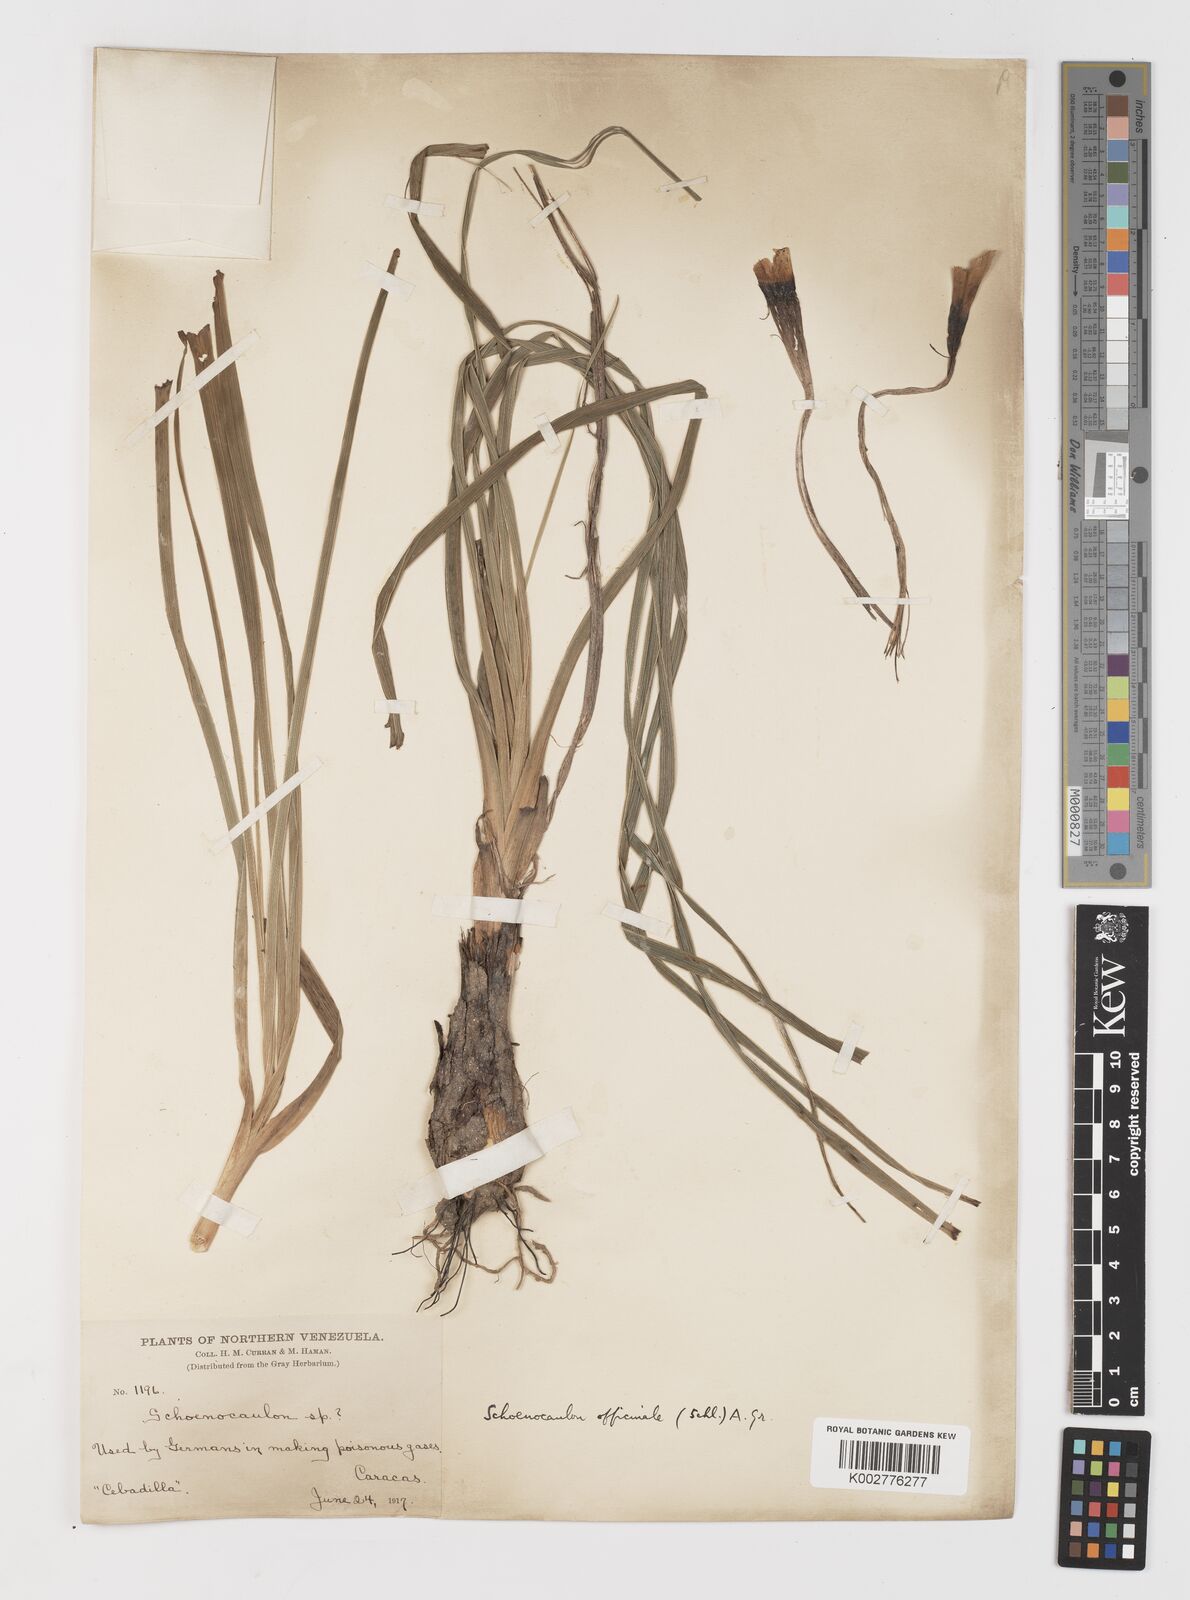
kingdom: Plantae
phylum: Tracheophyta
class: Liliopsida
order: Liliales
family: Melanthiaceae
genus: Schoenocaulon
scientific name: Schoenocaulon officinale
